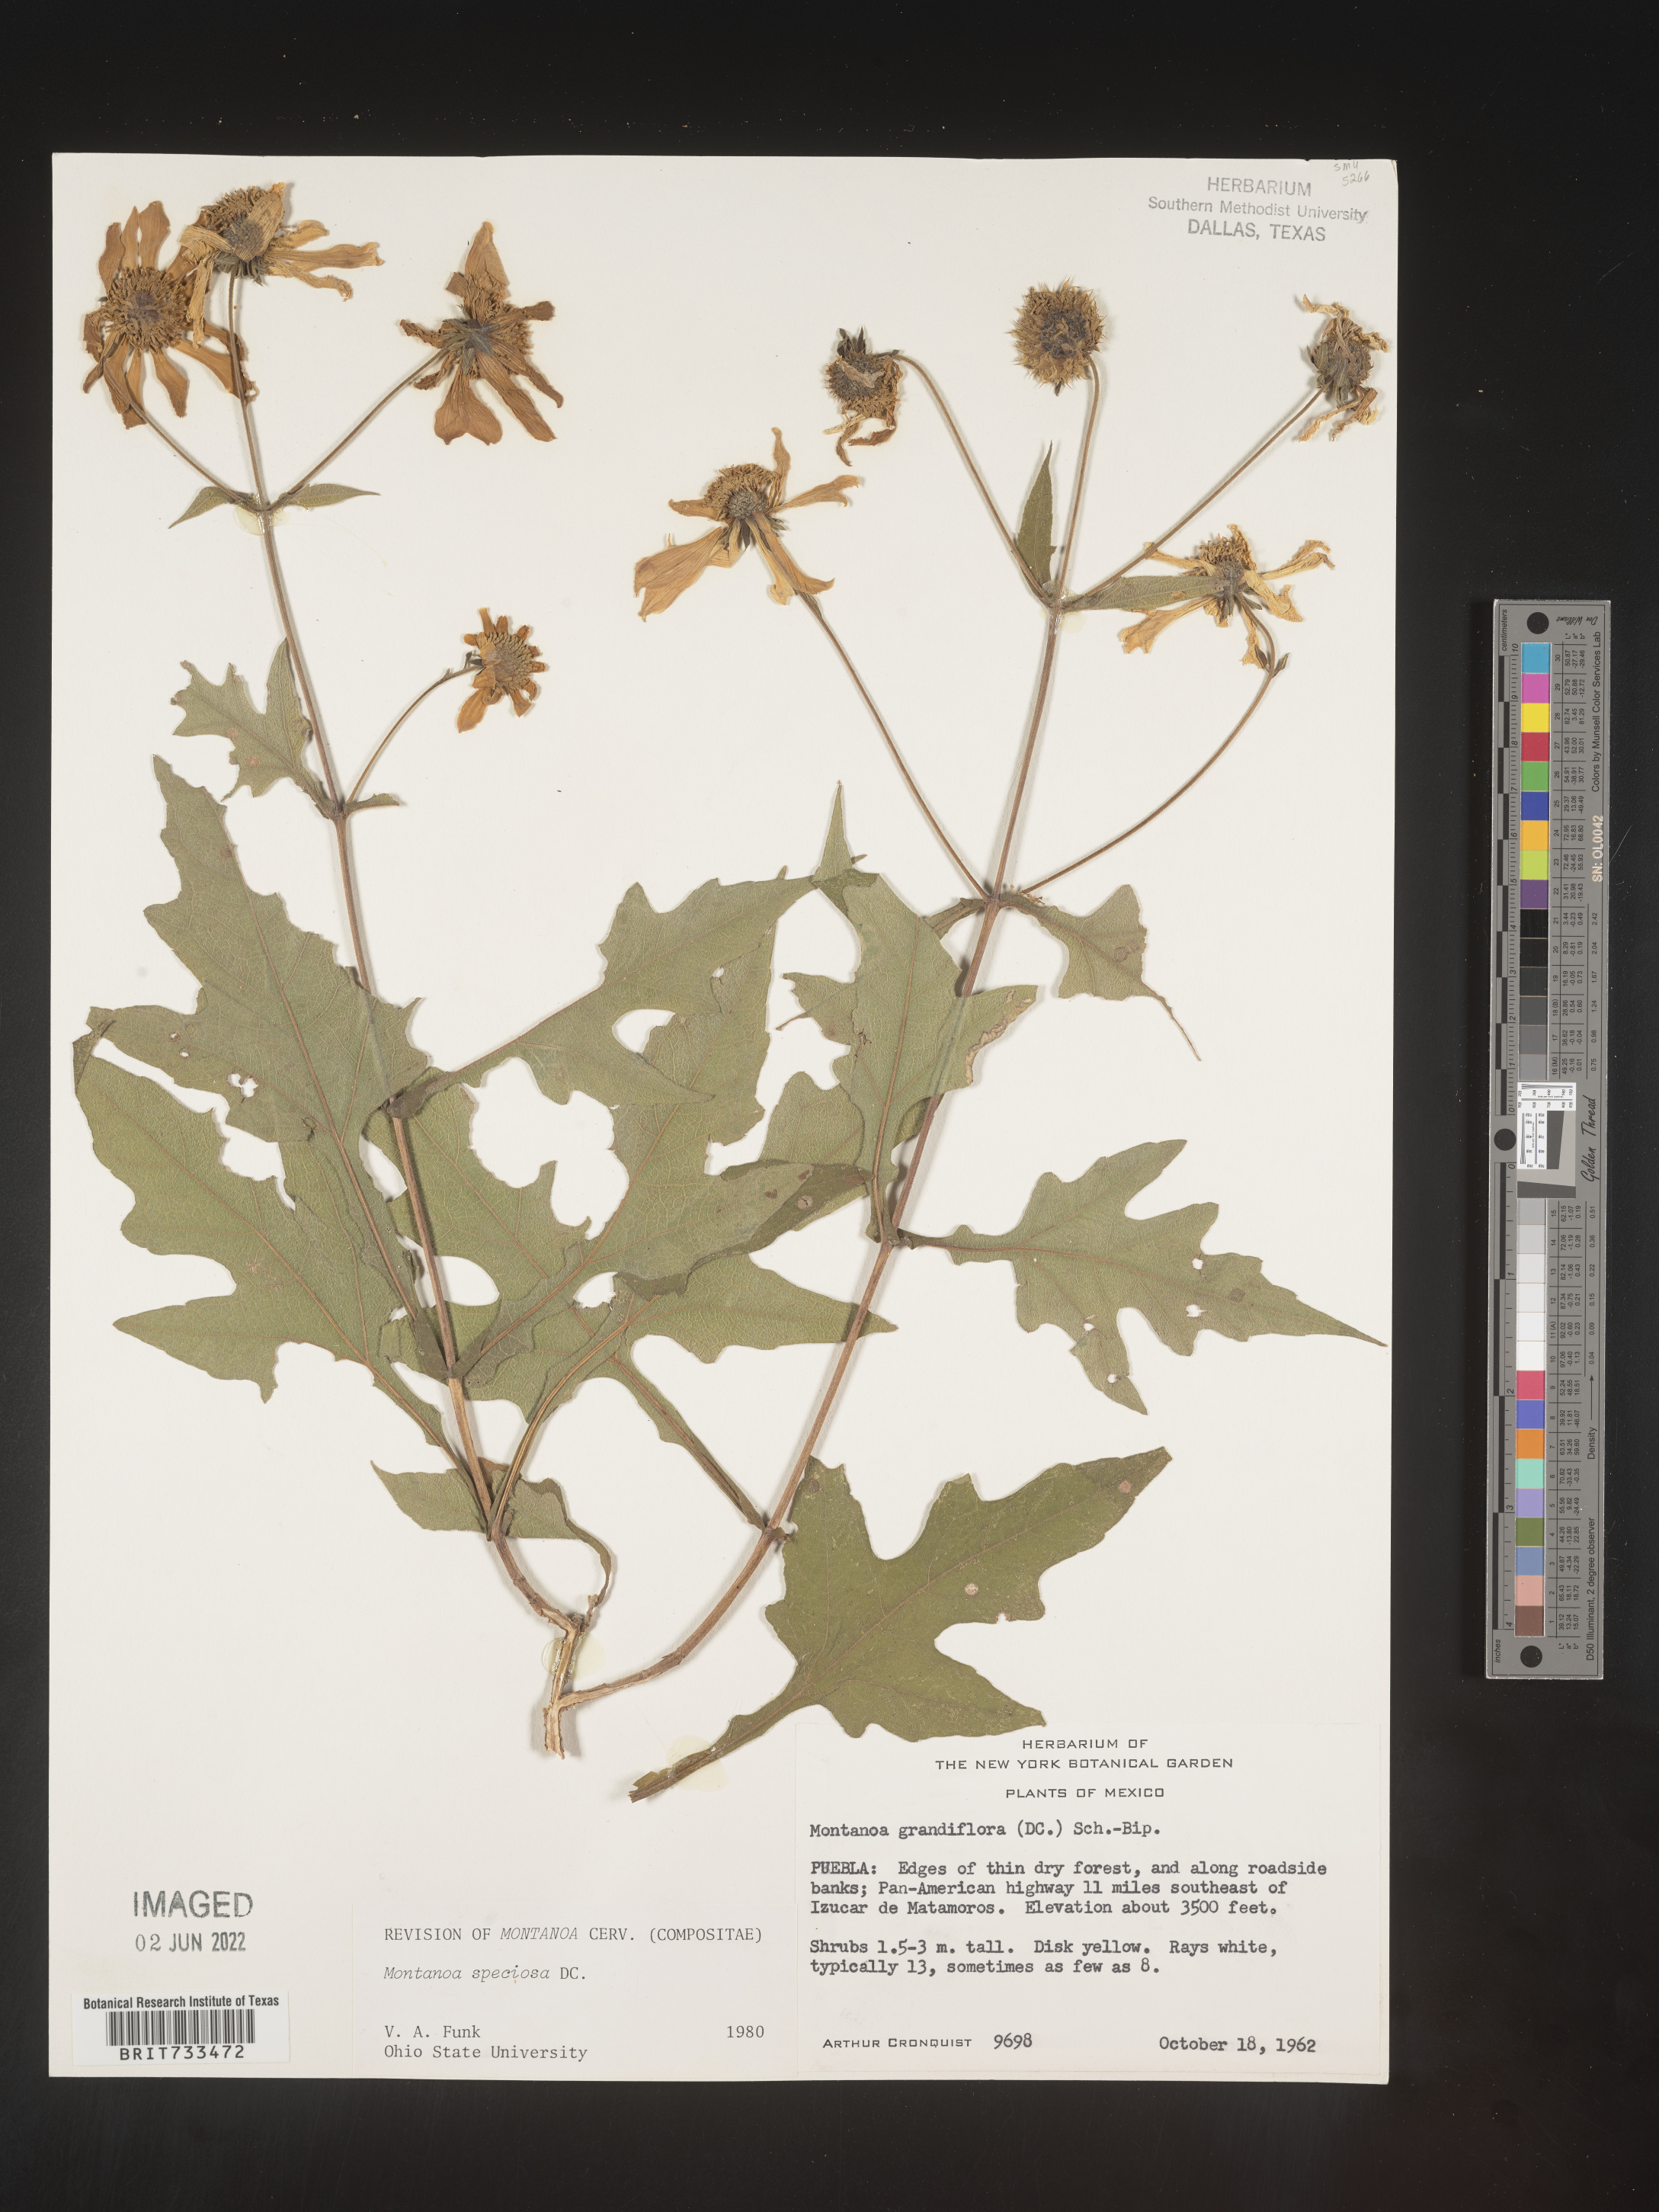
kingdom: Plantae
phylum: Tracheophyta
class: Magnoliopsida
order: Asterales
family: Asteraceae
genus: Montanoa
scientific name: Montanoa
